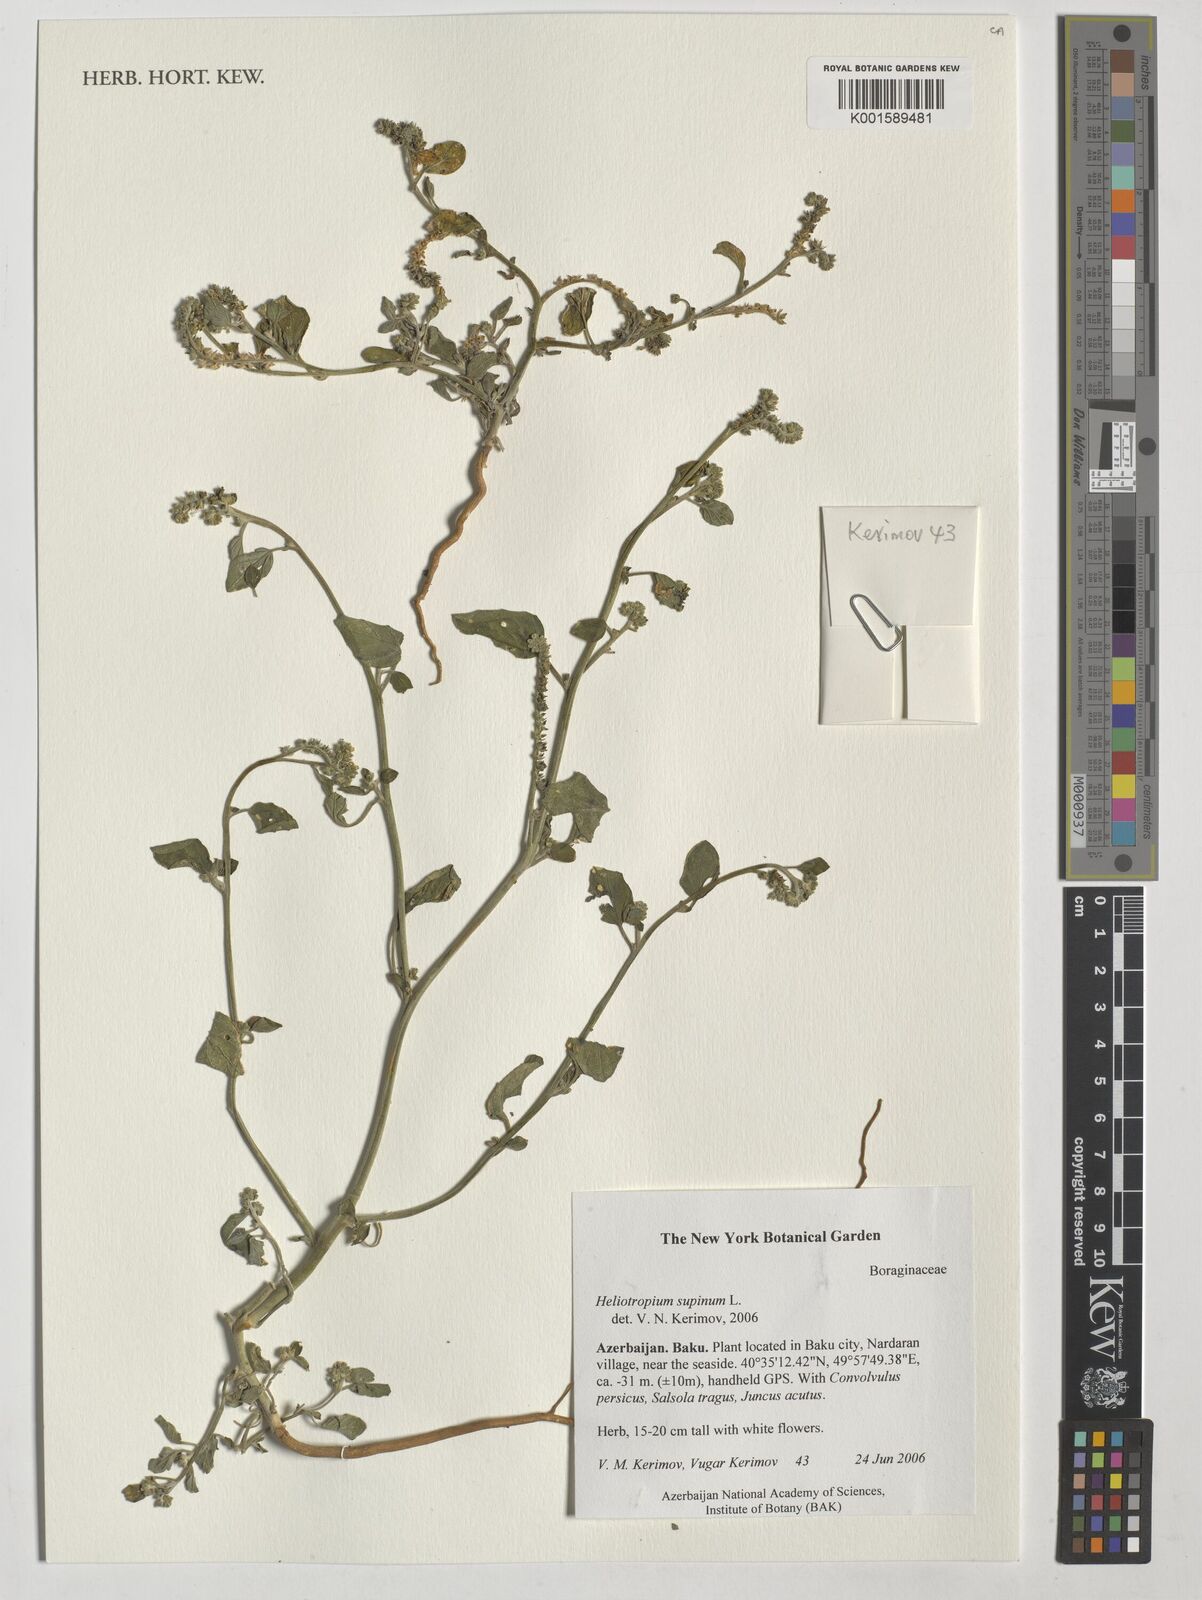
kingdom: Plantae
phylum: Tracheophyta
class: Magnoliopsida
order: Boraginales
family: Heliotropiaceae
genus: Heliotropium
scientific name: Heliotropium supinum
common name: Dwarf heliotrope
